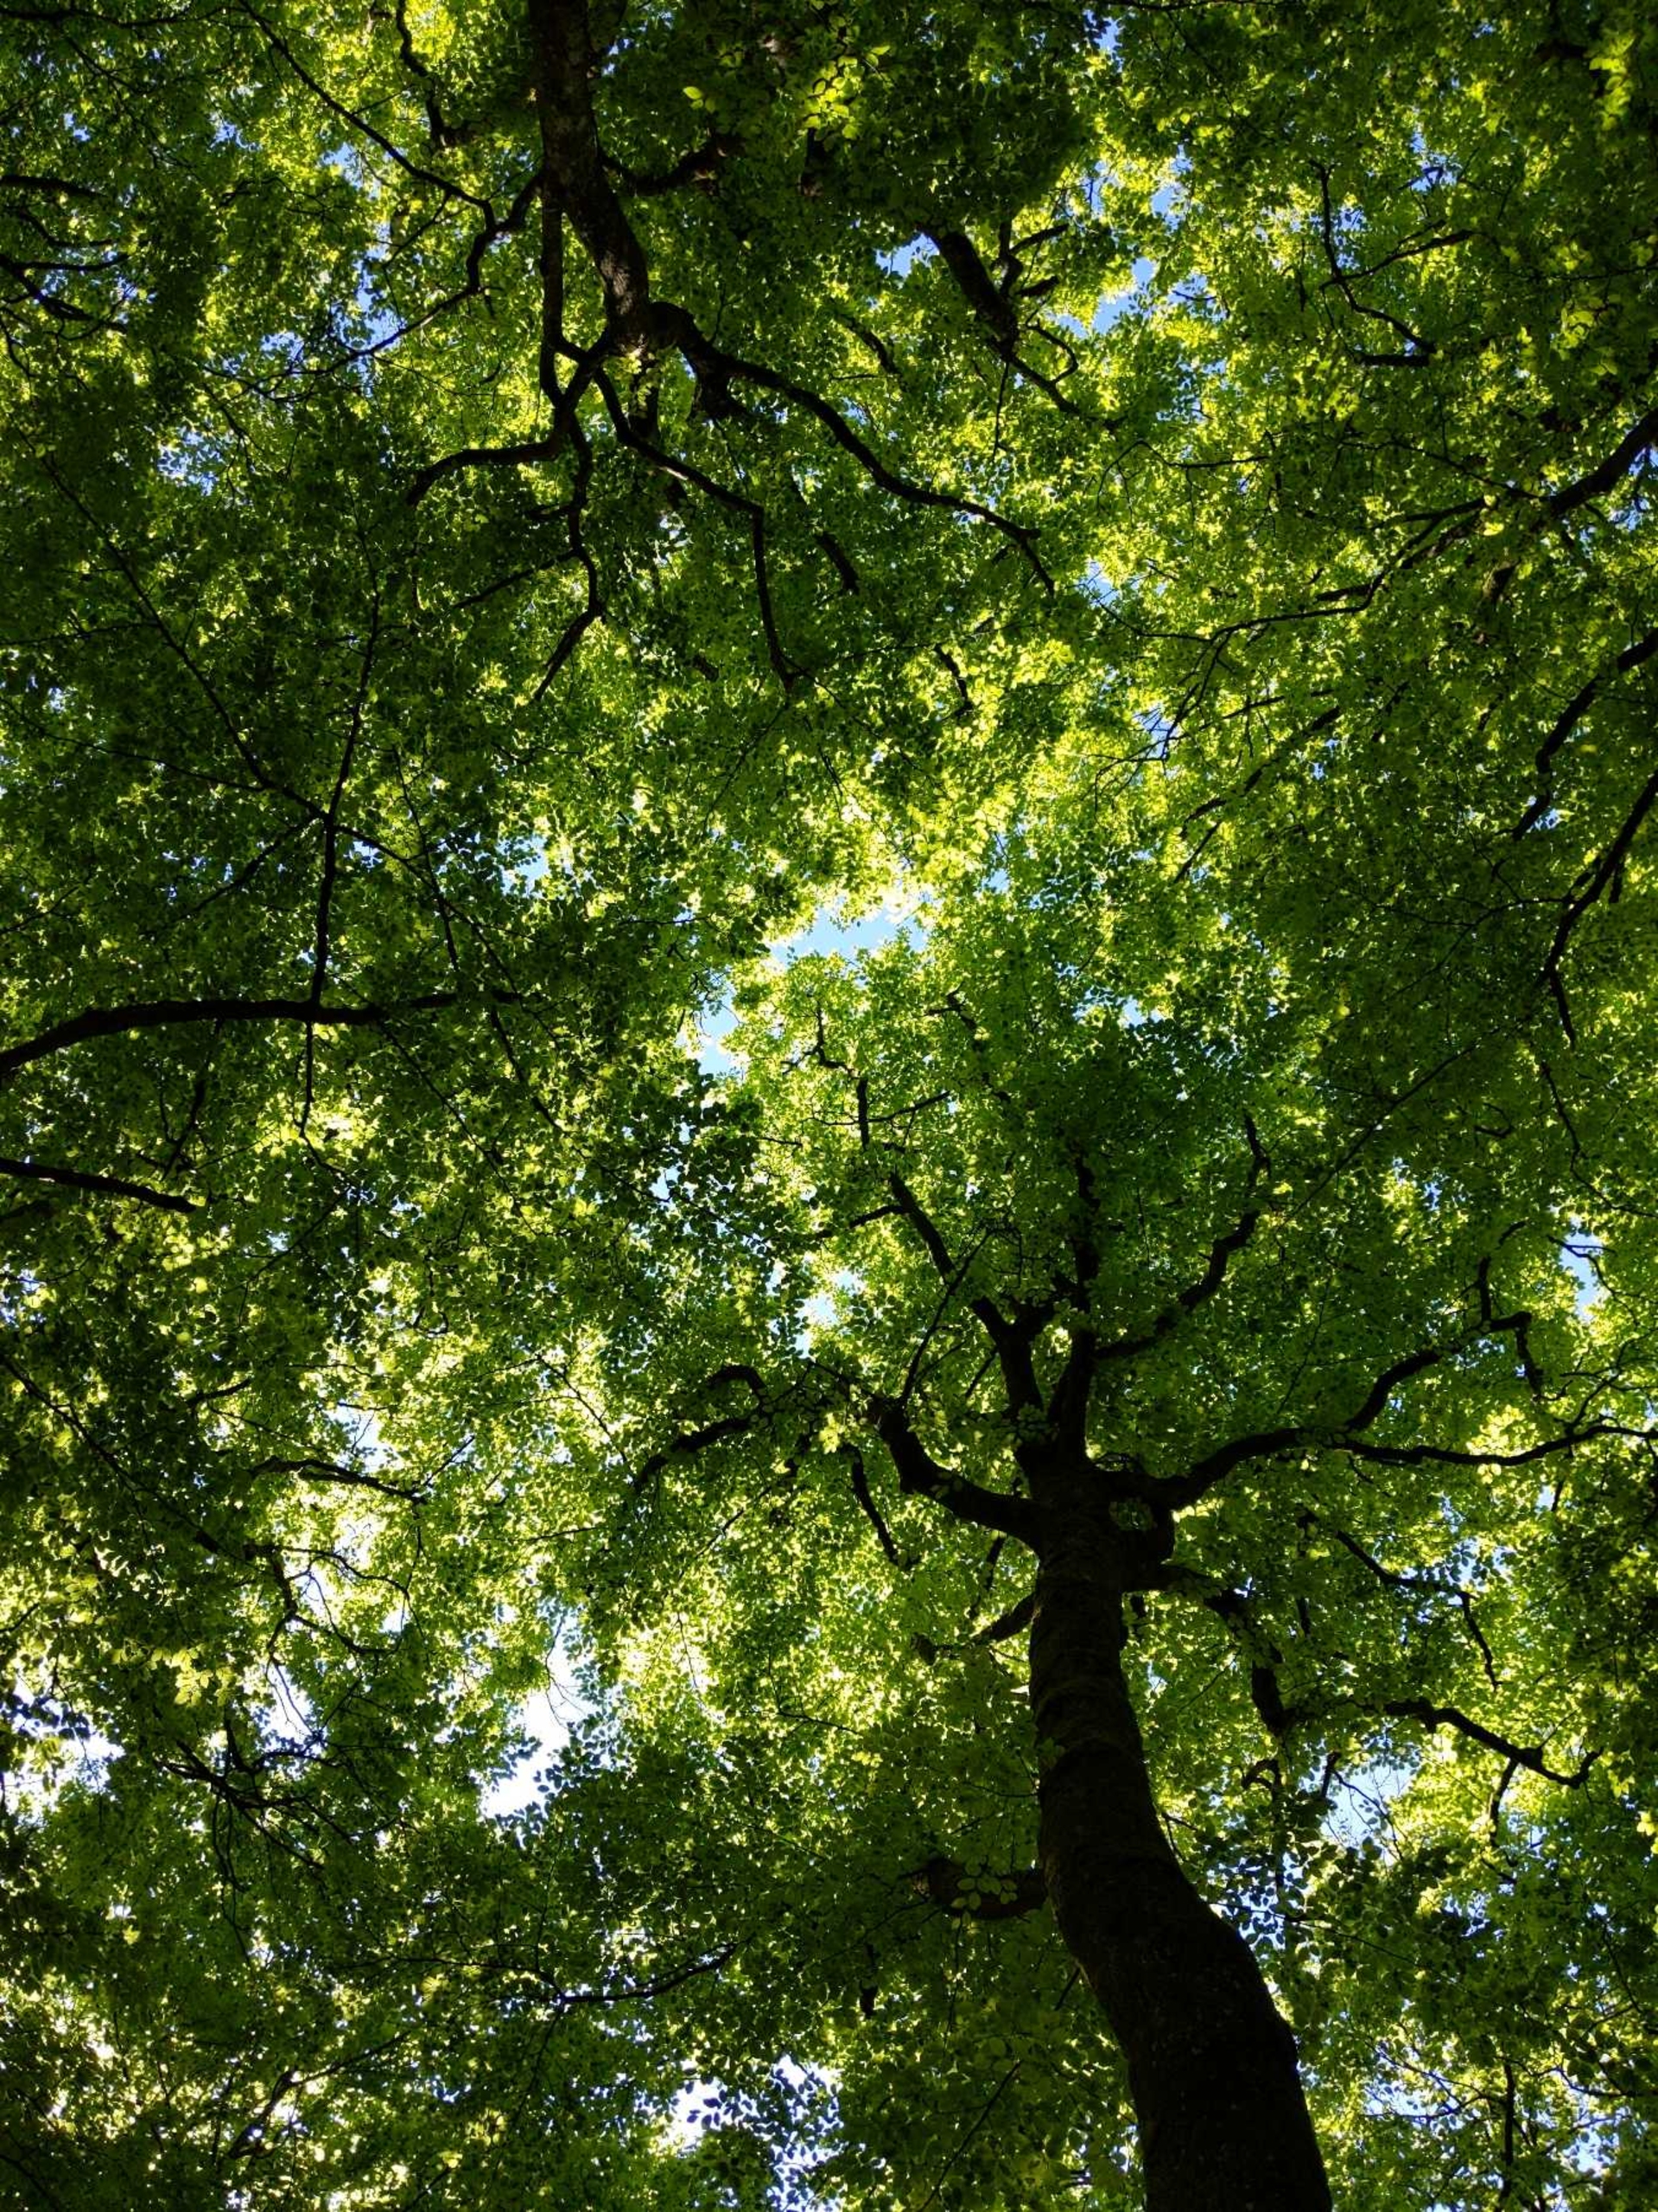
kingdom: Plantae
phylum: Tracheophyta
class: Magnoliopsida
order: Fagales
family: Fagaceae
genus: Fagus
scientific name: Fagus sylvatica
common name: Bøg
